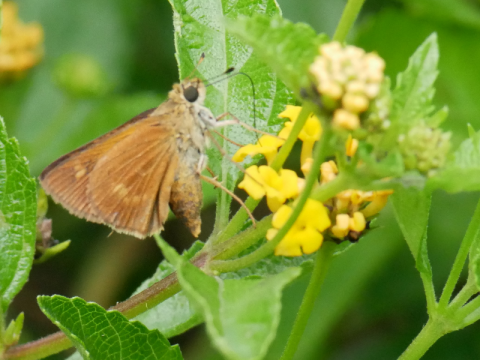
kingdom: Animalia
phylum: Arthropoda
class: Insecta
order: Lepidoptera
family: Hesperiidae
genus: Wallengrenia
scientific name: Wallengrenia otho
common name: Southern Broken-Dash
